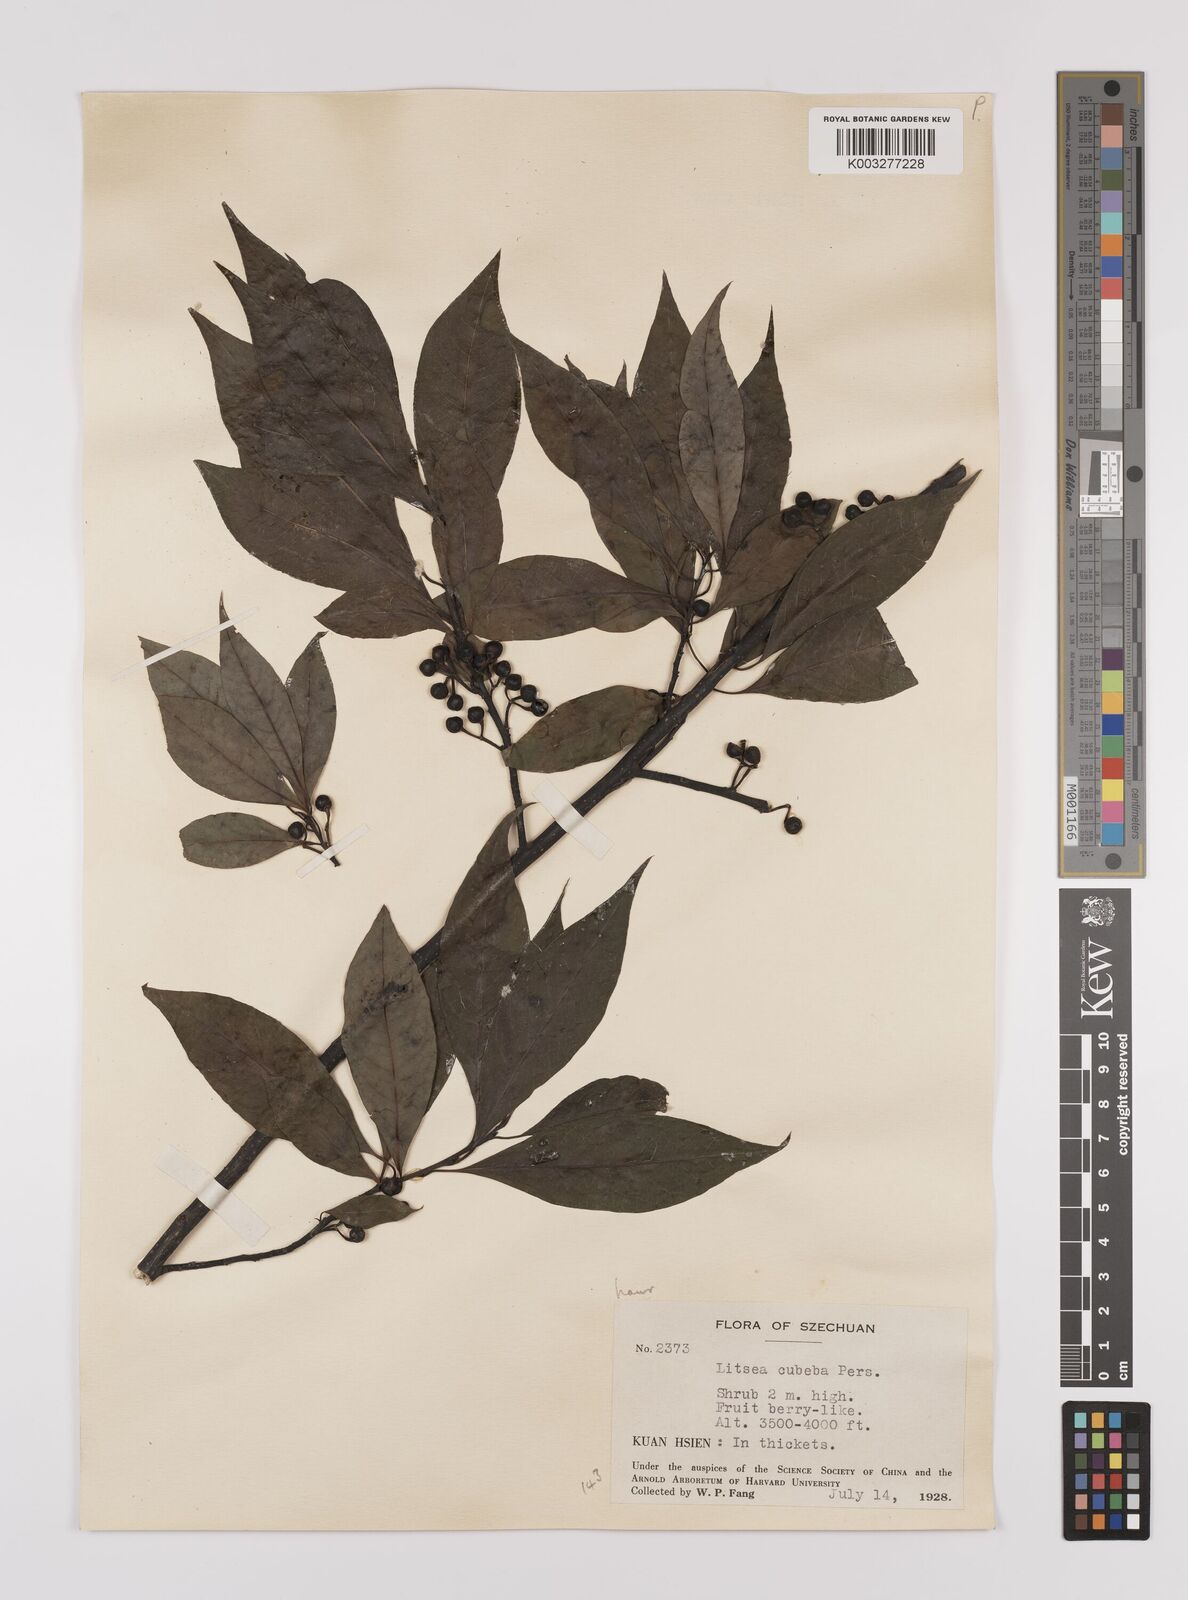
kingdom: Plantae
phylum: Tracheophyta
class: Magnoliopsida
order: Laurales
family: Lauraceae
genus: Litsea
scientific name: Litsea cubeba
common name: Mountain-pepper
